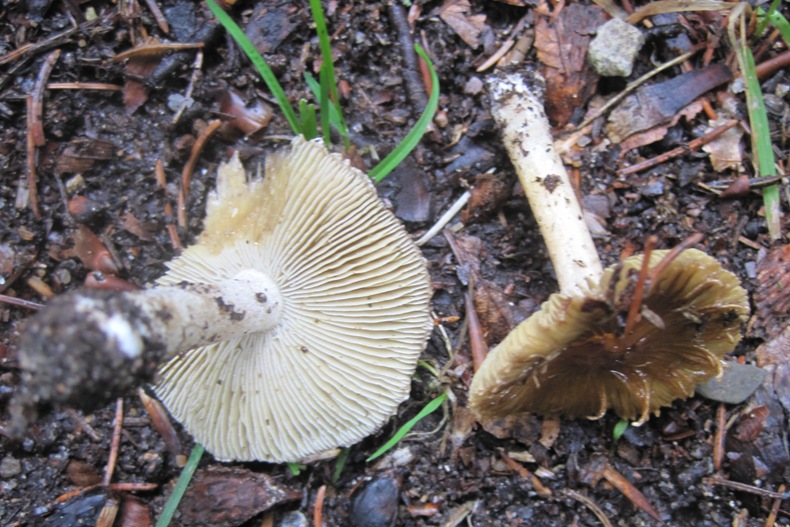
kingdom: Fungi
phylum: Basidiomycota
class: Agaricomycetes
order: Agaricales
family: Inocybaceae
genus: Pseudosperma
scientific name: Pseudosperma rimosum
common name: gulbladet trævlhat
